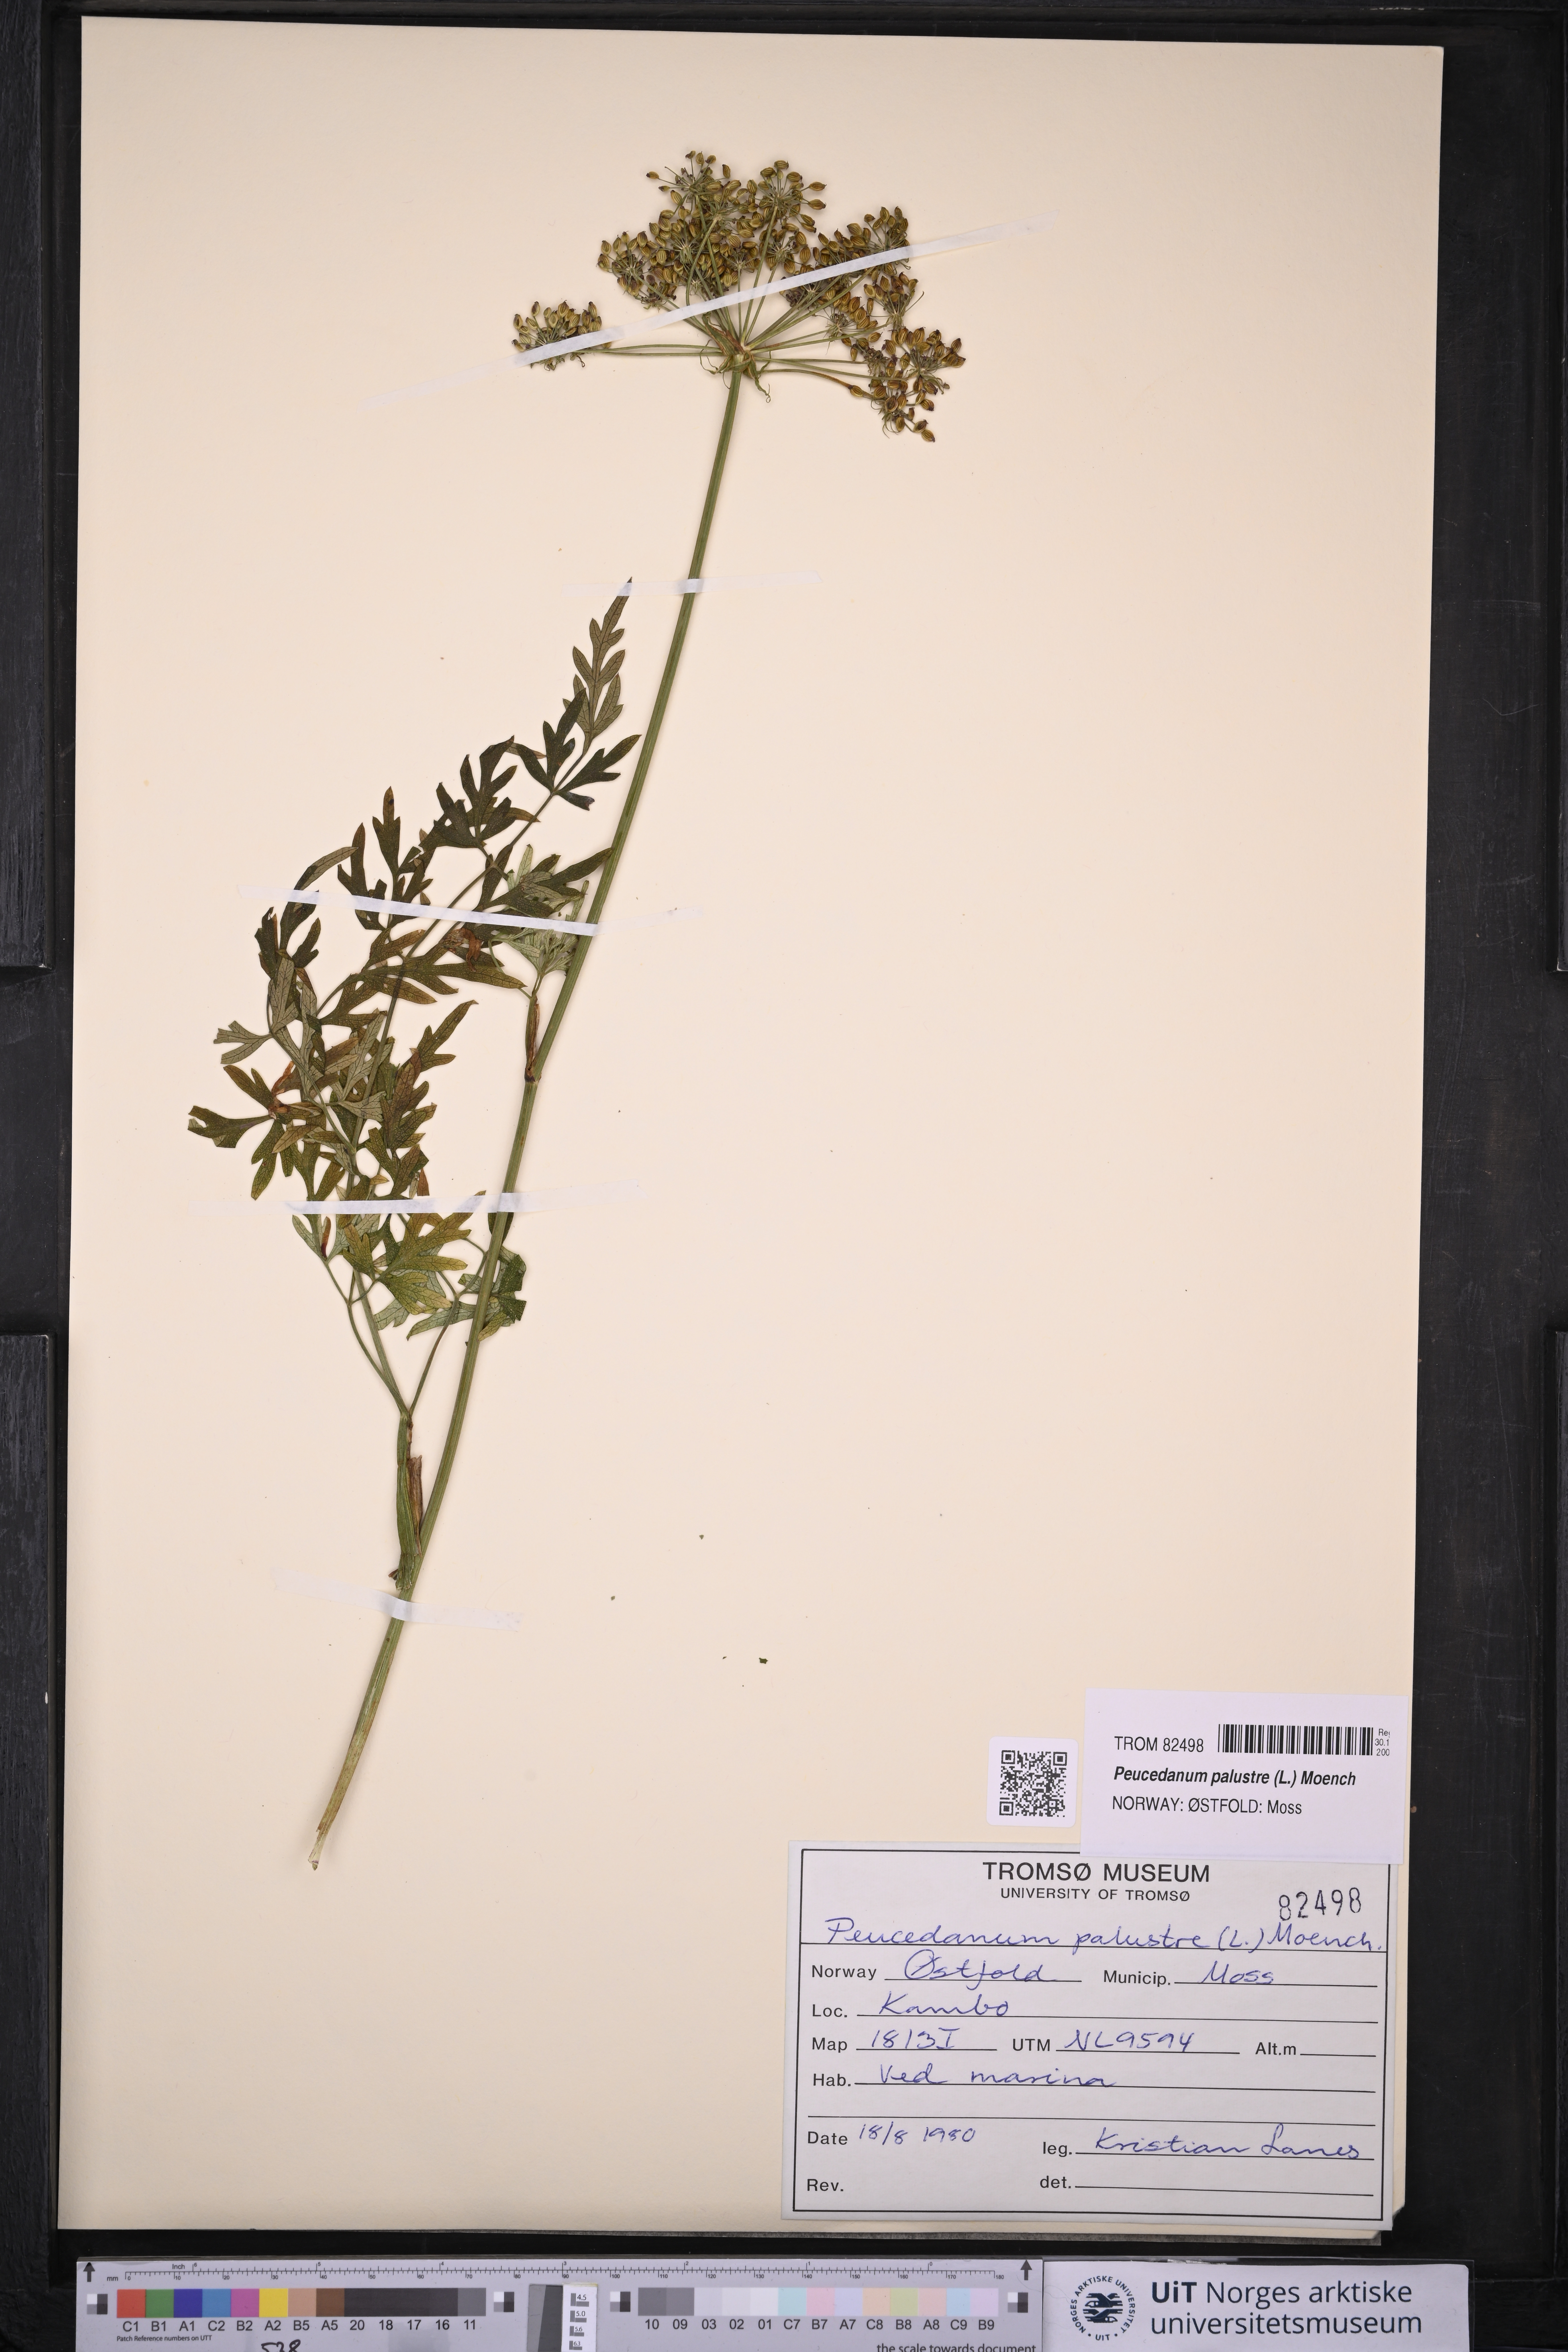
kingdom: Plantae
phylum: Tracheophyta
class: Magnoliopsida
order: Apiales
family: Apiaceae
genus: Thysselinum
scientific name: Thysselinum palustre
